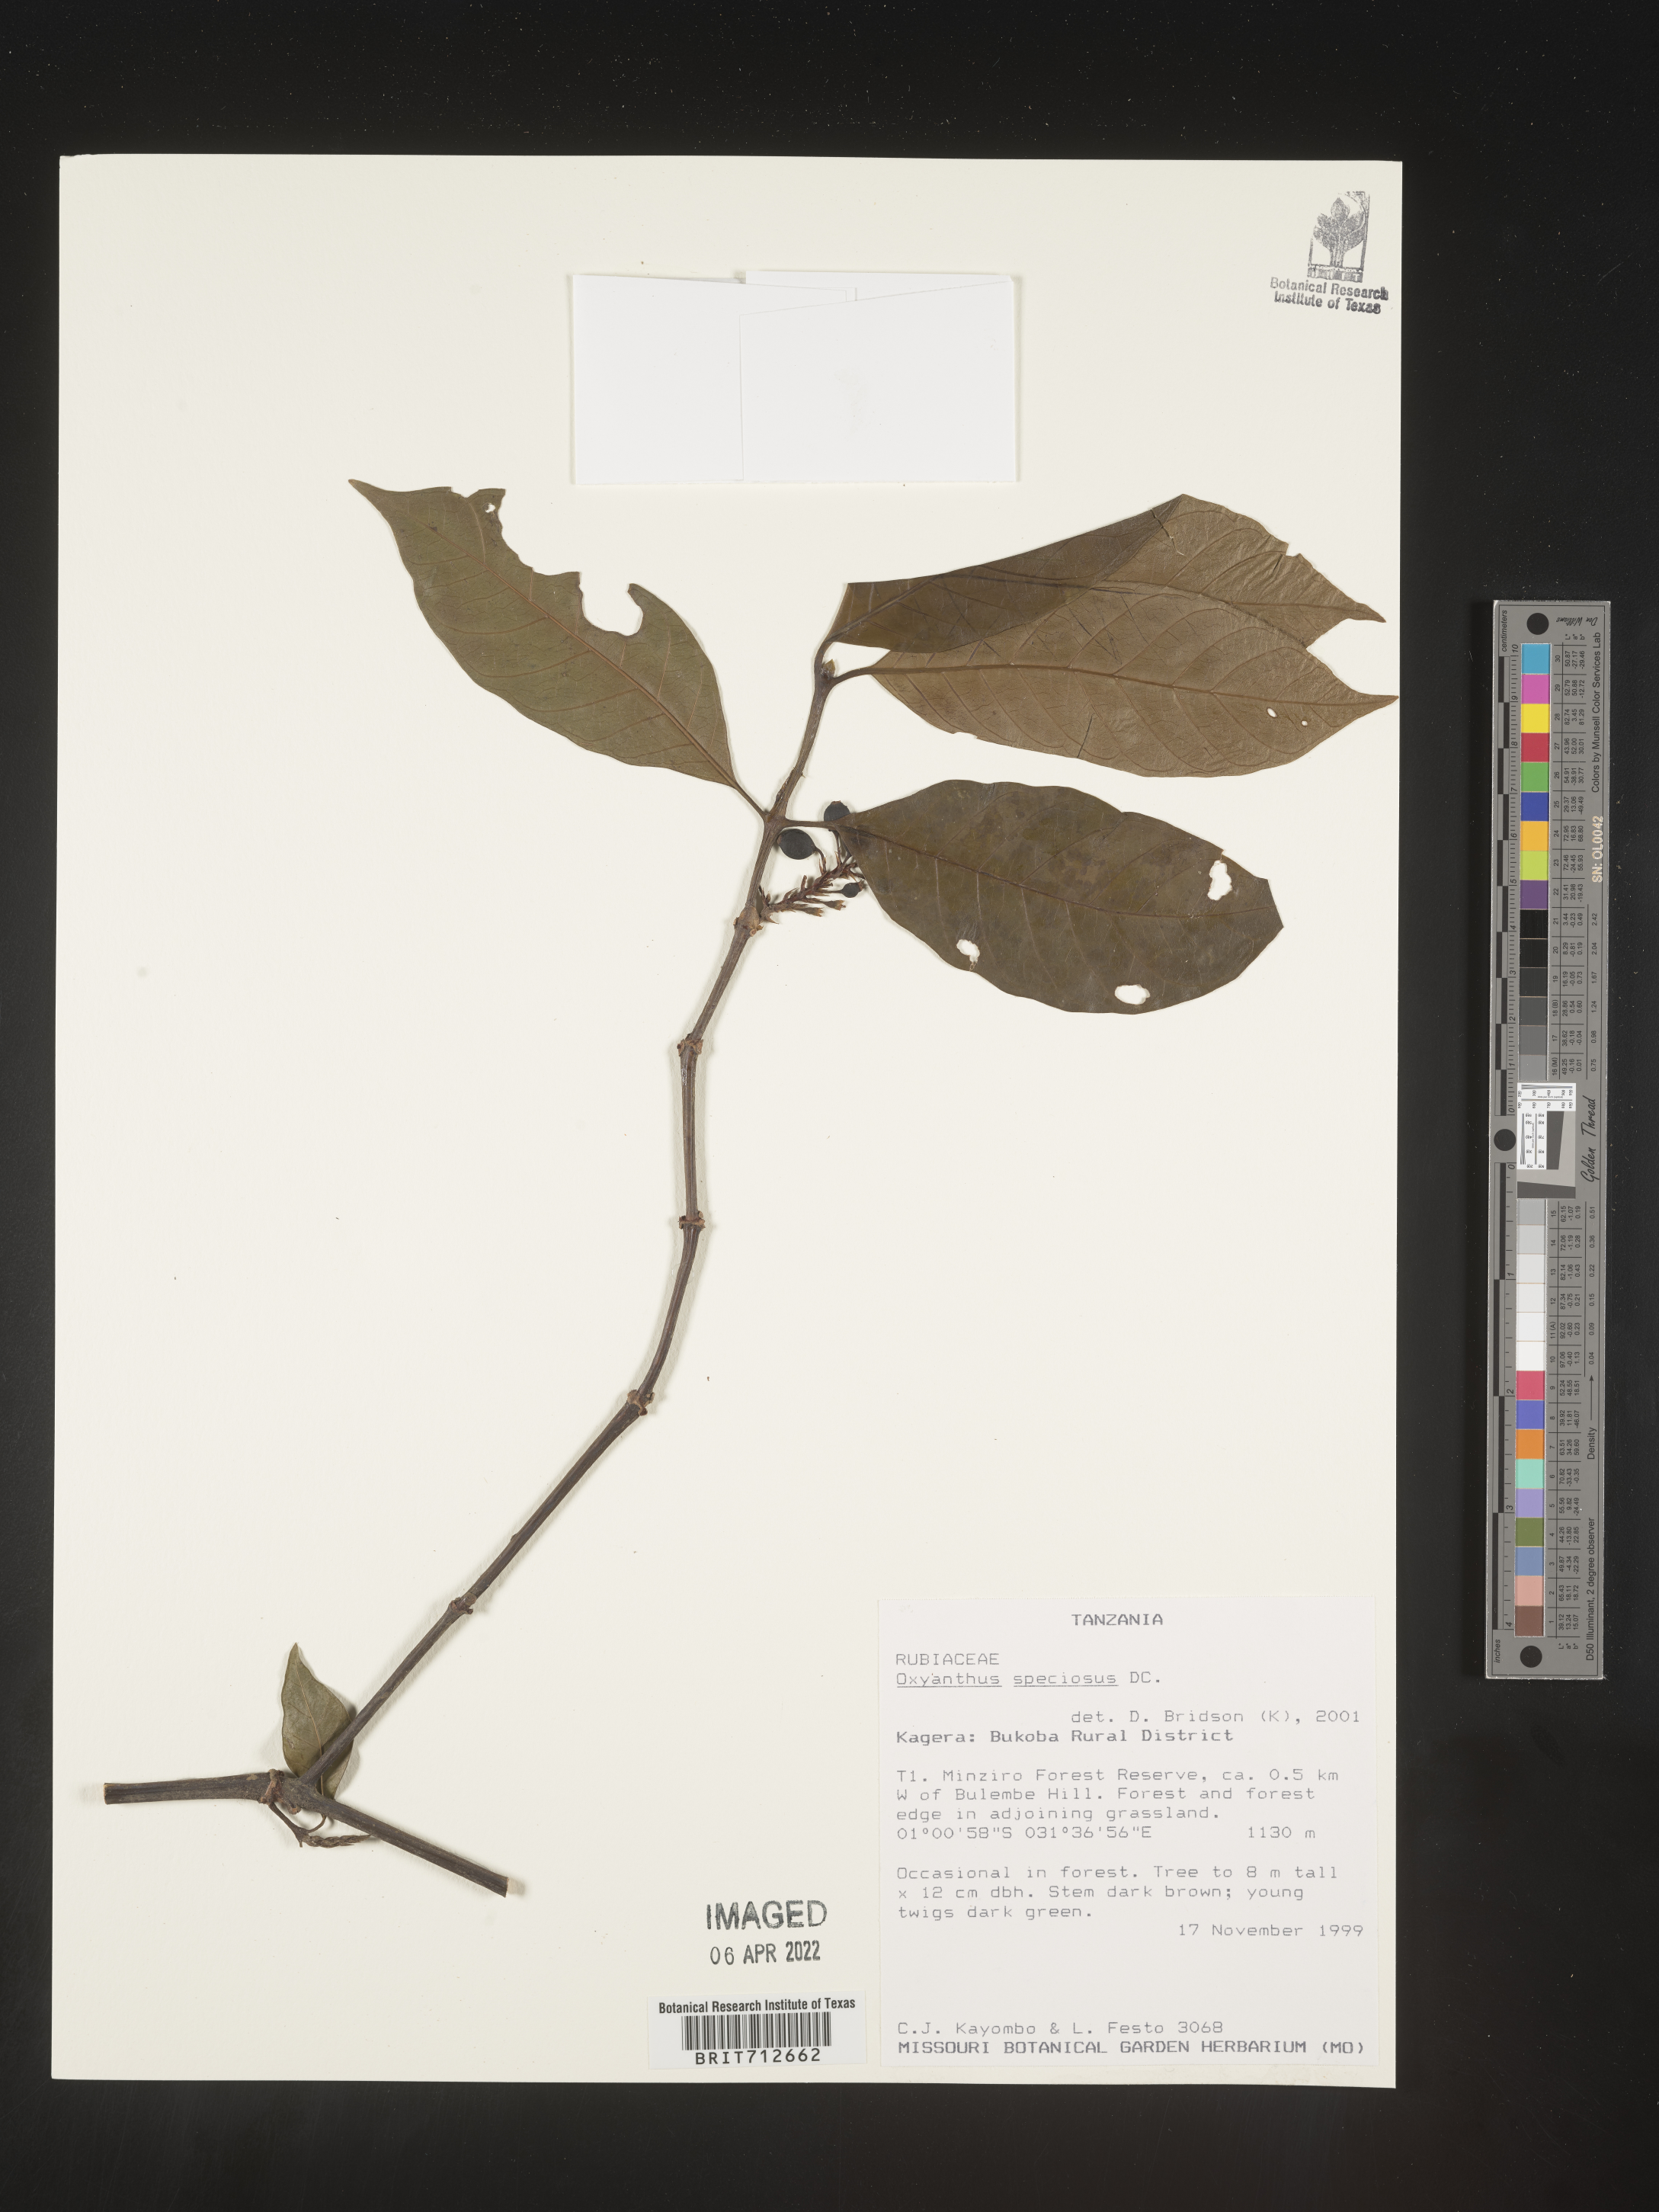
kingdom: Plantae
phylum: Tracheophyta
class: Magnoliopsida
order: Gentianales
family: Rubiaceae
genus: Oxyanthus
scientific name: Oxyanthus
